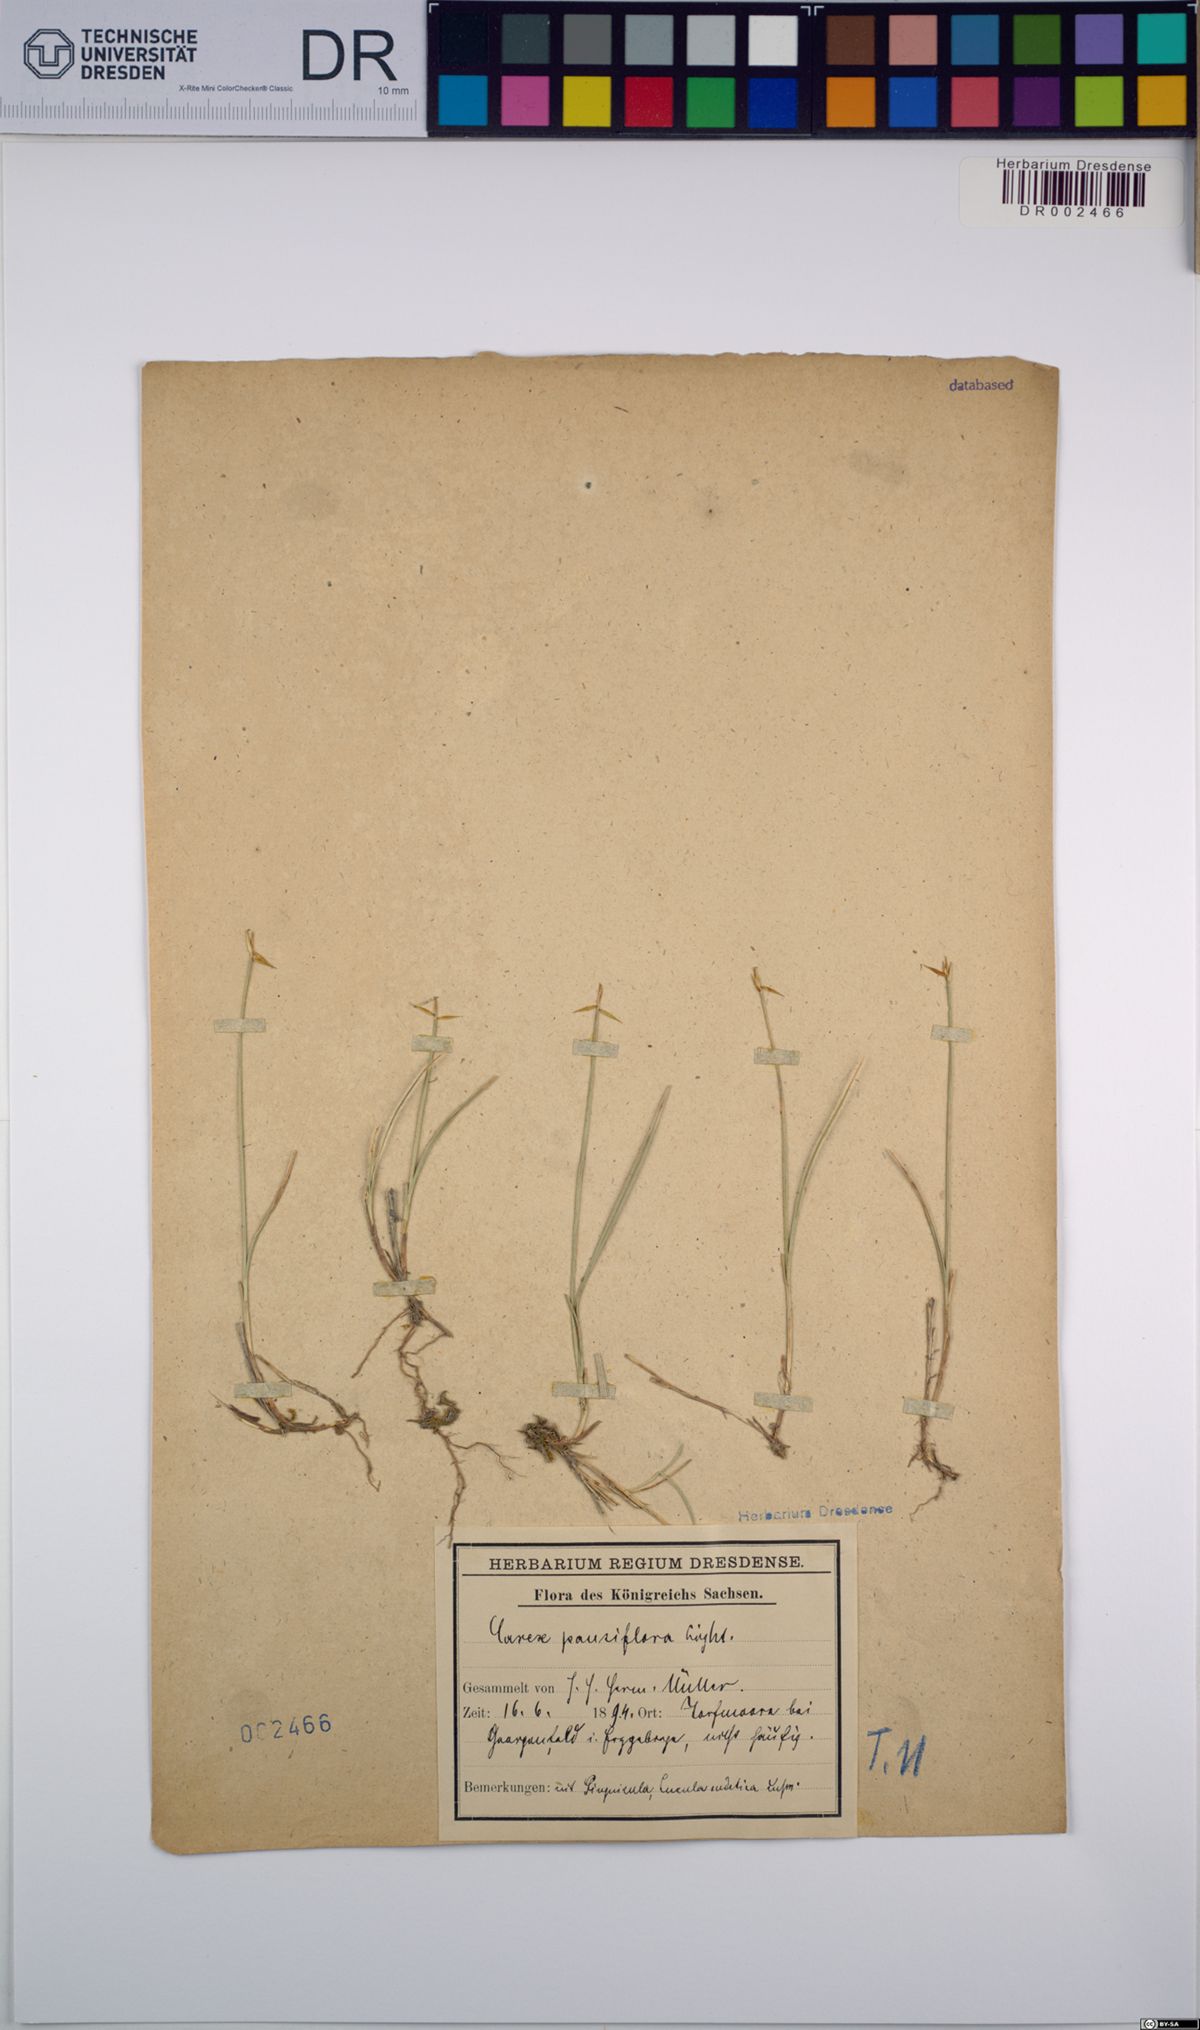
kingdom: Plantae
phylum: Tracheophyta
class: Liliopsida
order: Poales
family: Cyperaceae
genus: Carex
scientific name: Carex pauciflora
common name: Few-flowered sedge
